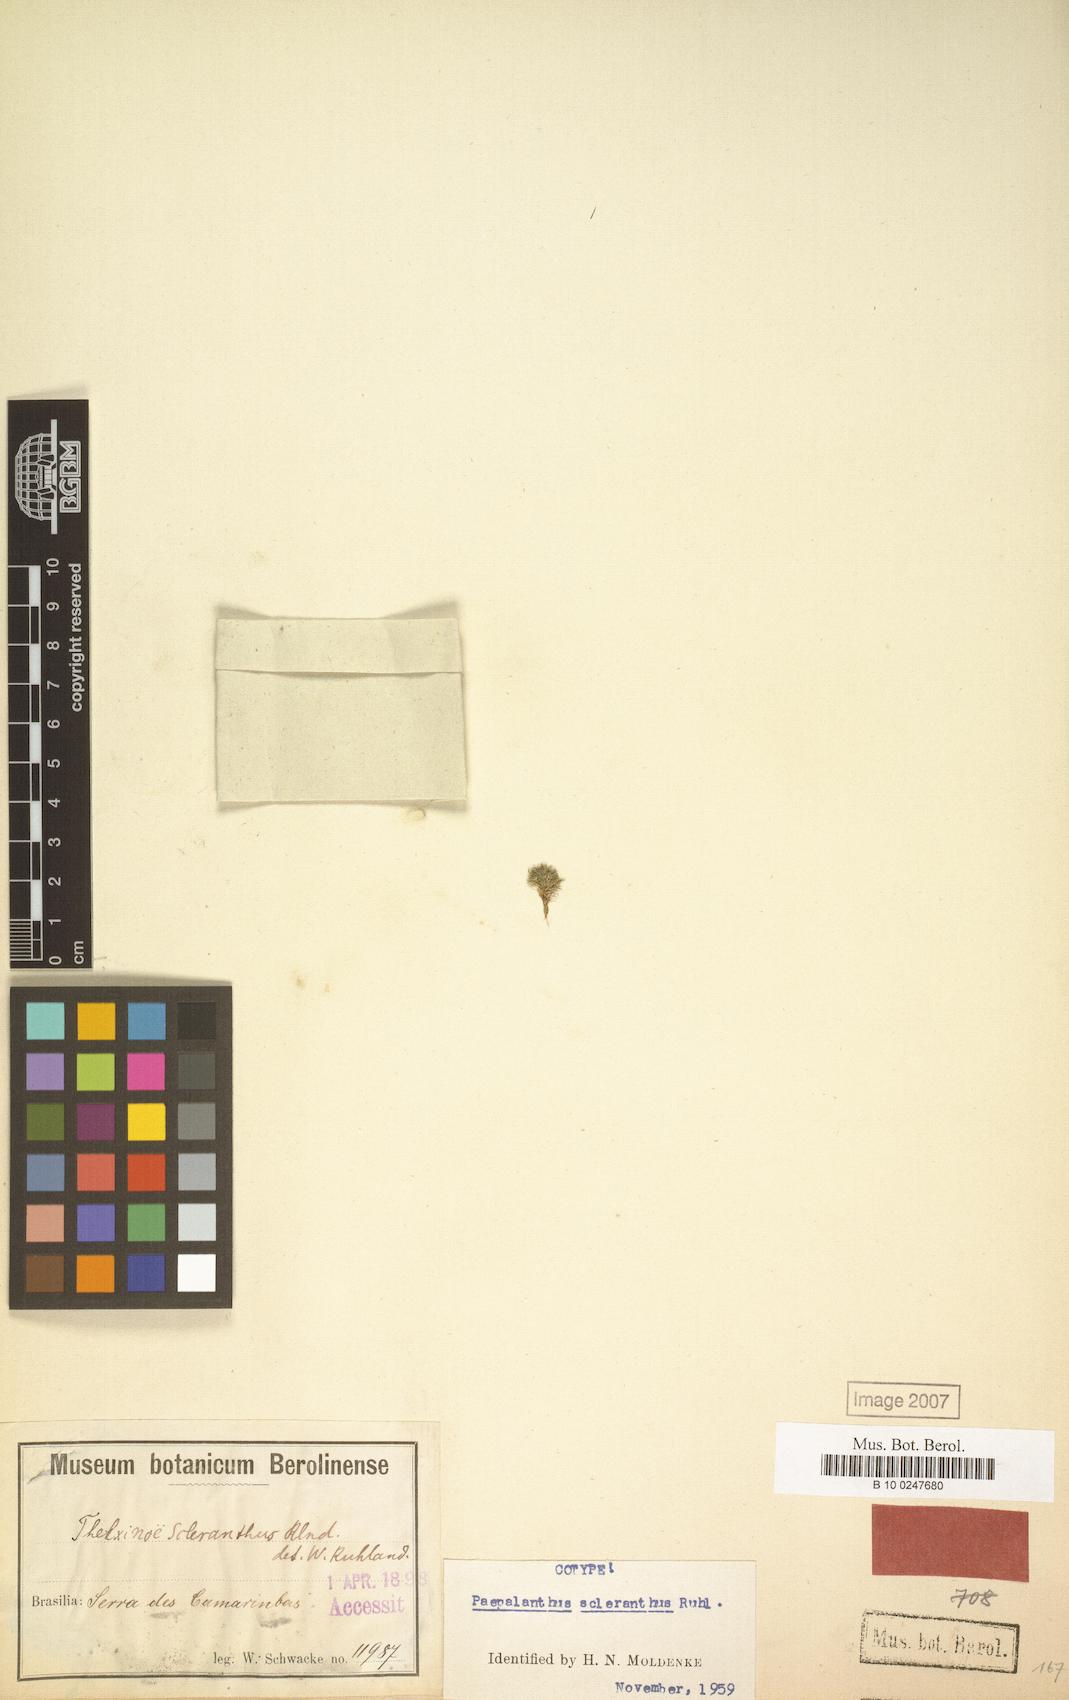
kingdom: Plantae
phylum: Tracheophyta
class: Liliopsida
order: Poales
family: Eriocaulaceae
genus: Paepalanthus
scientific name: Paepalanthus scleranthus
